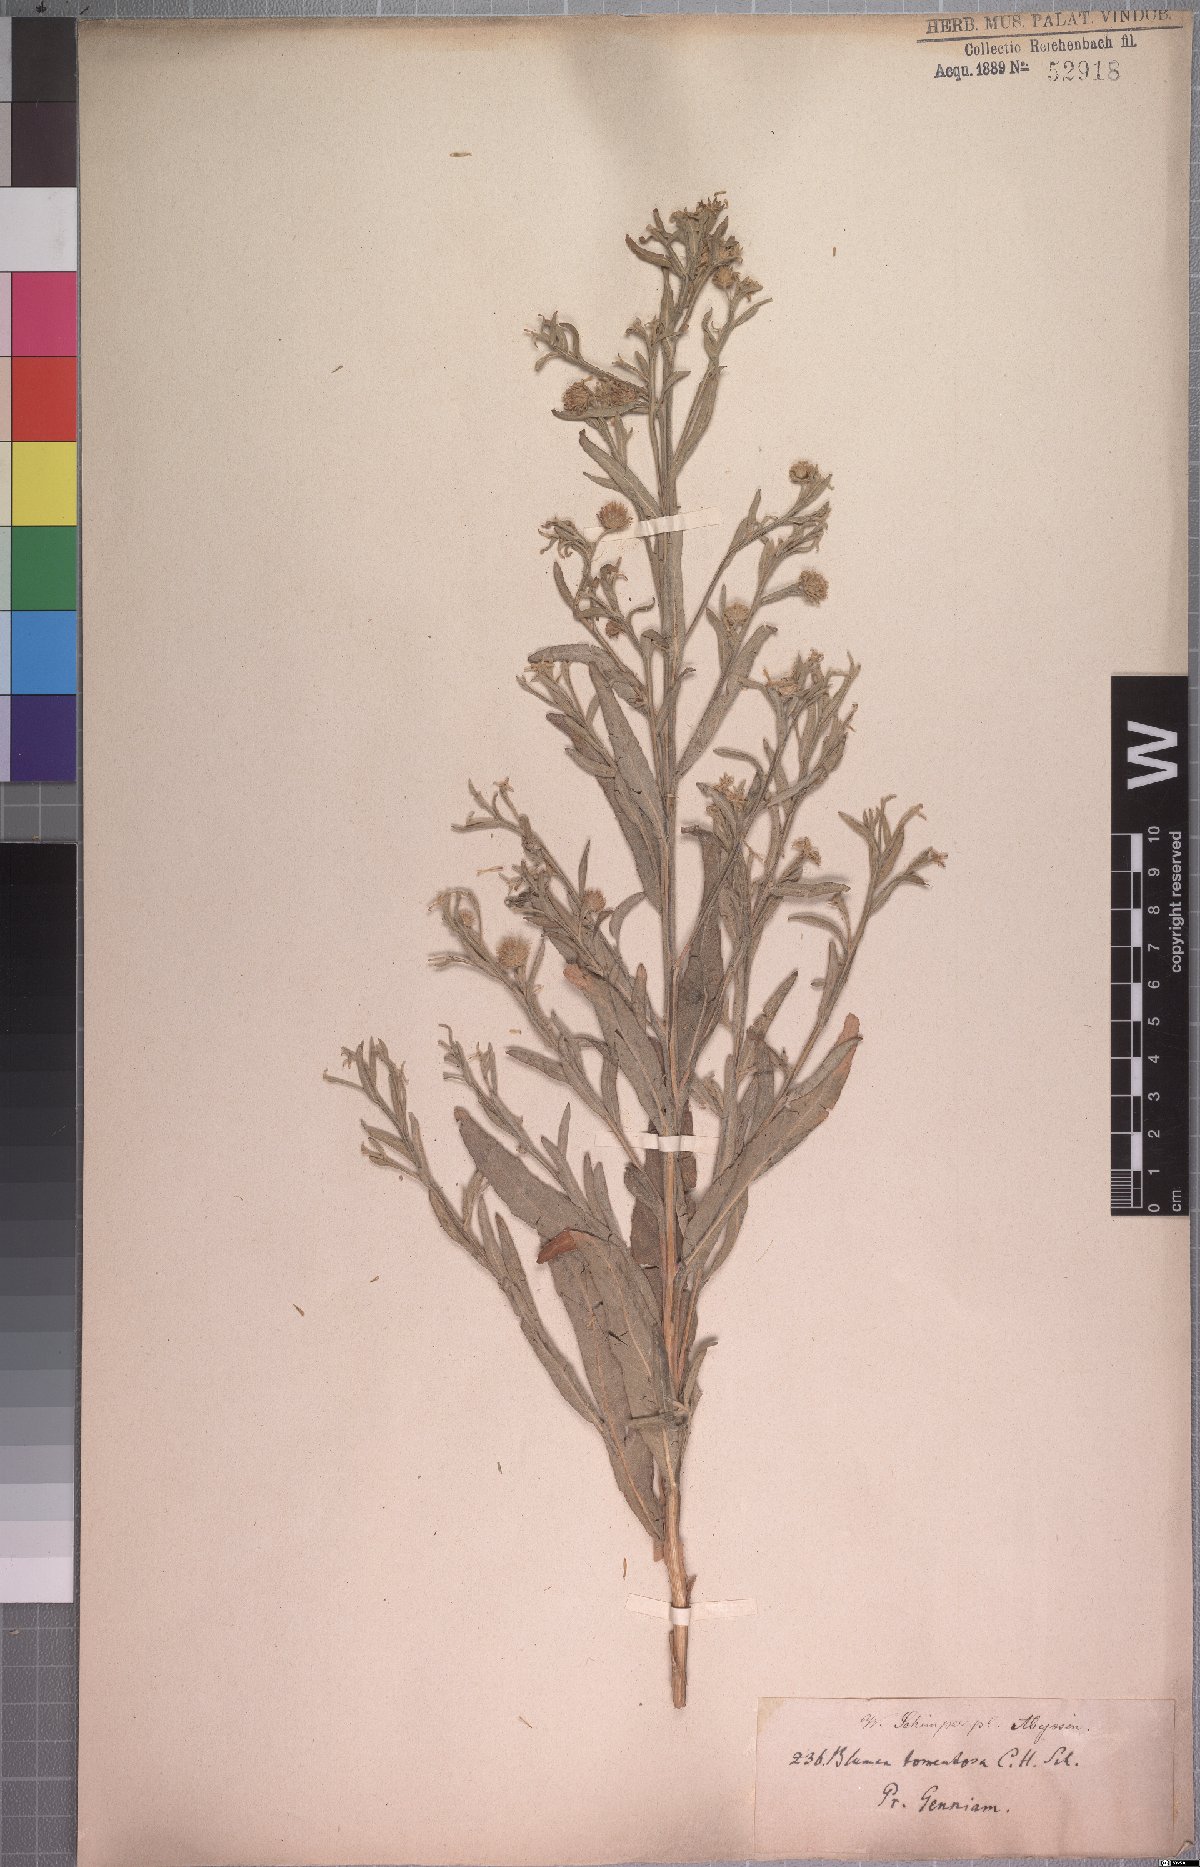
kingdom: Plantae
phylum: Tracheophyta
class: Magnoliopsida
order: Asterales
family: Asteraceae
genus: Laggera
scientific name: Laggera tomentosa
